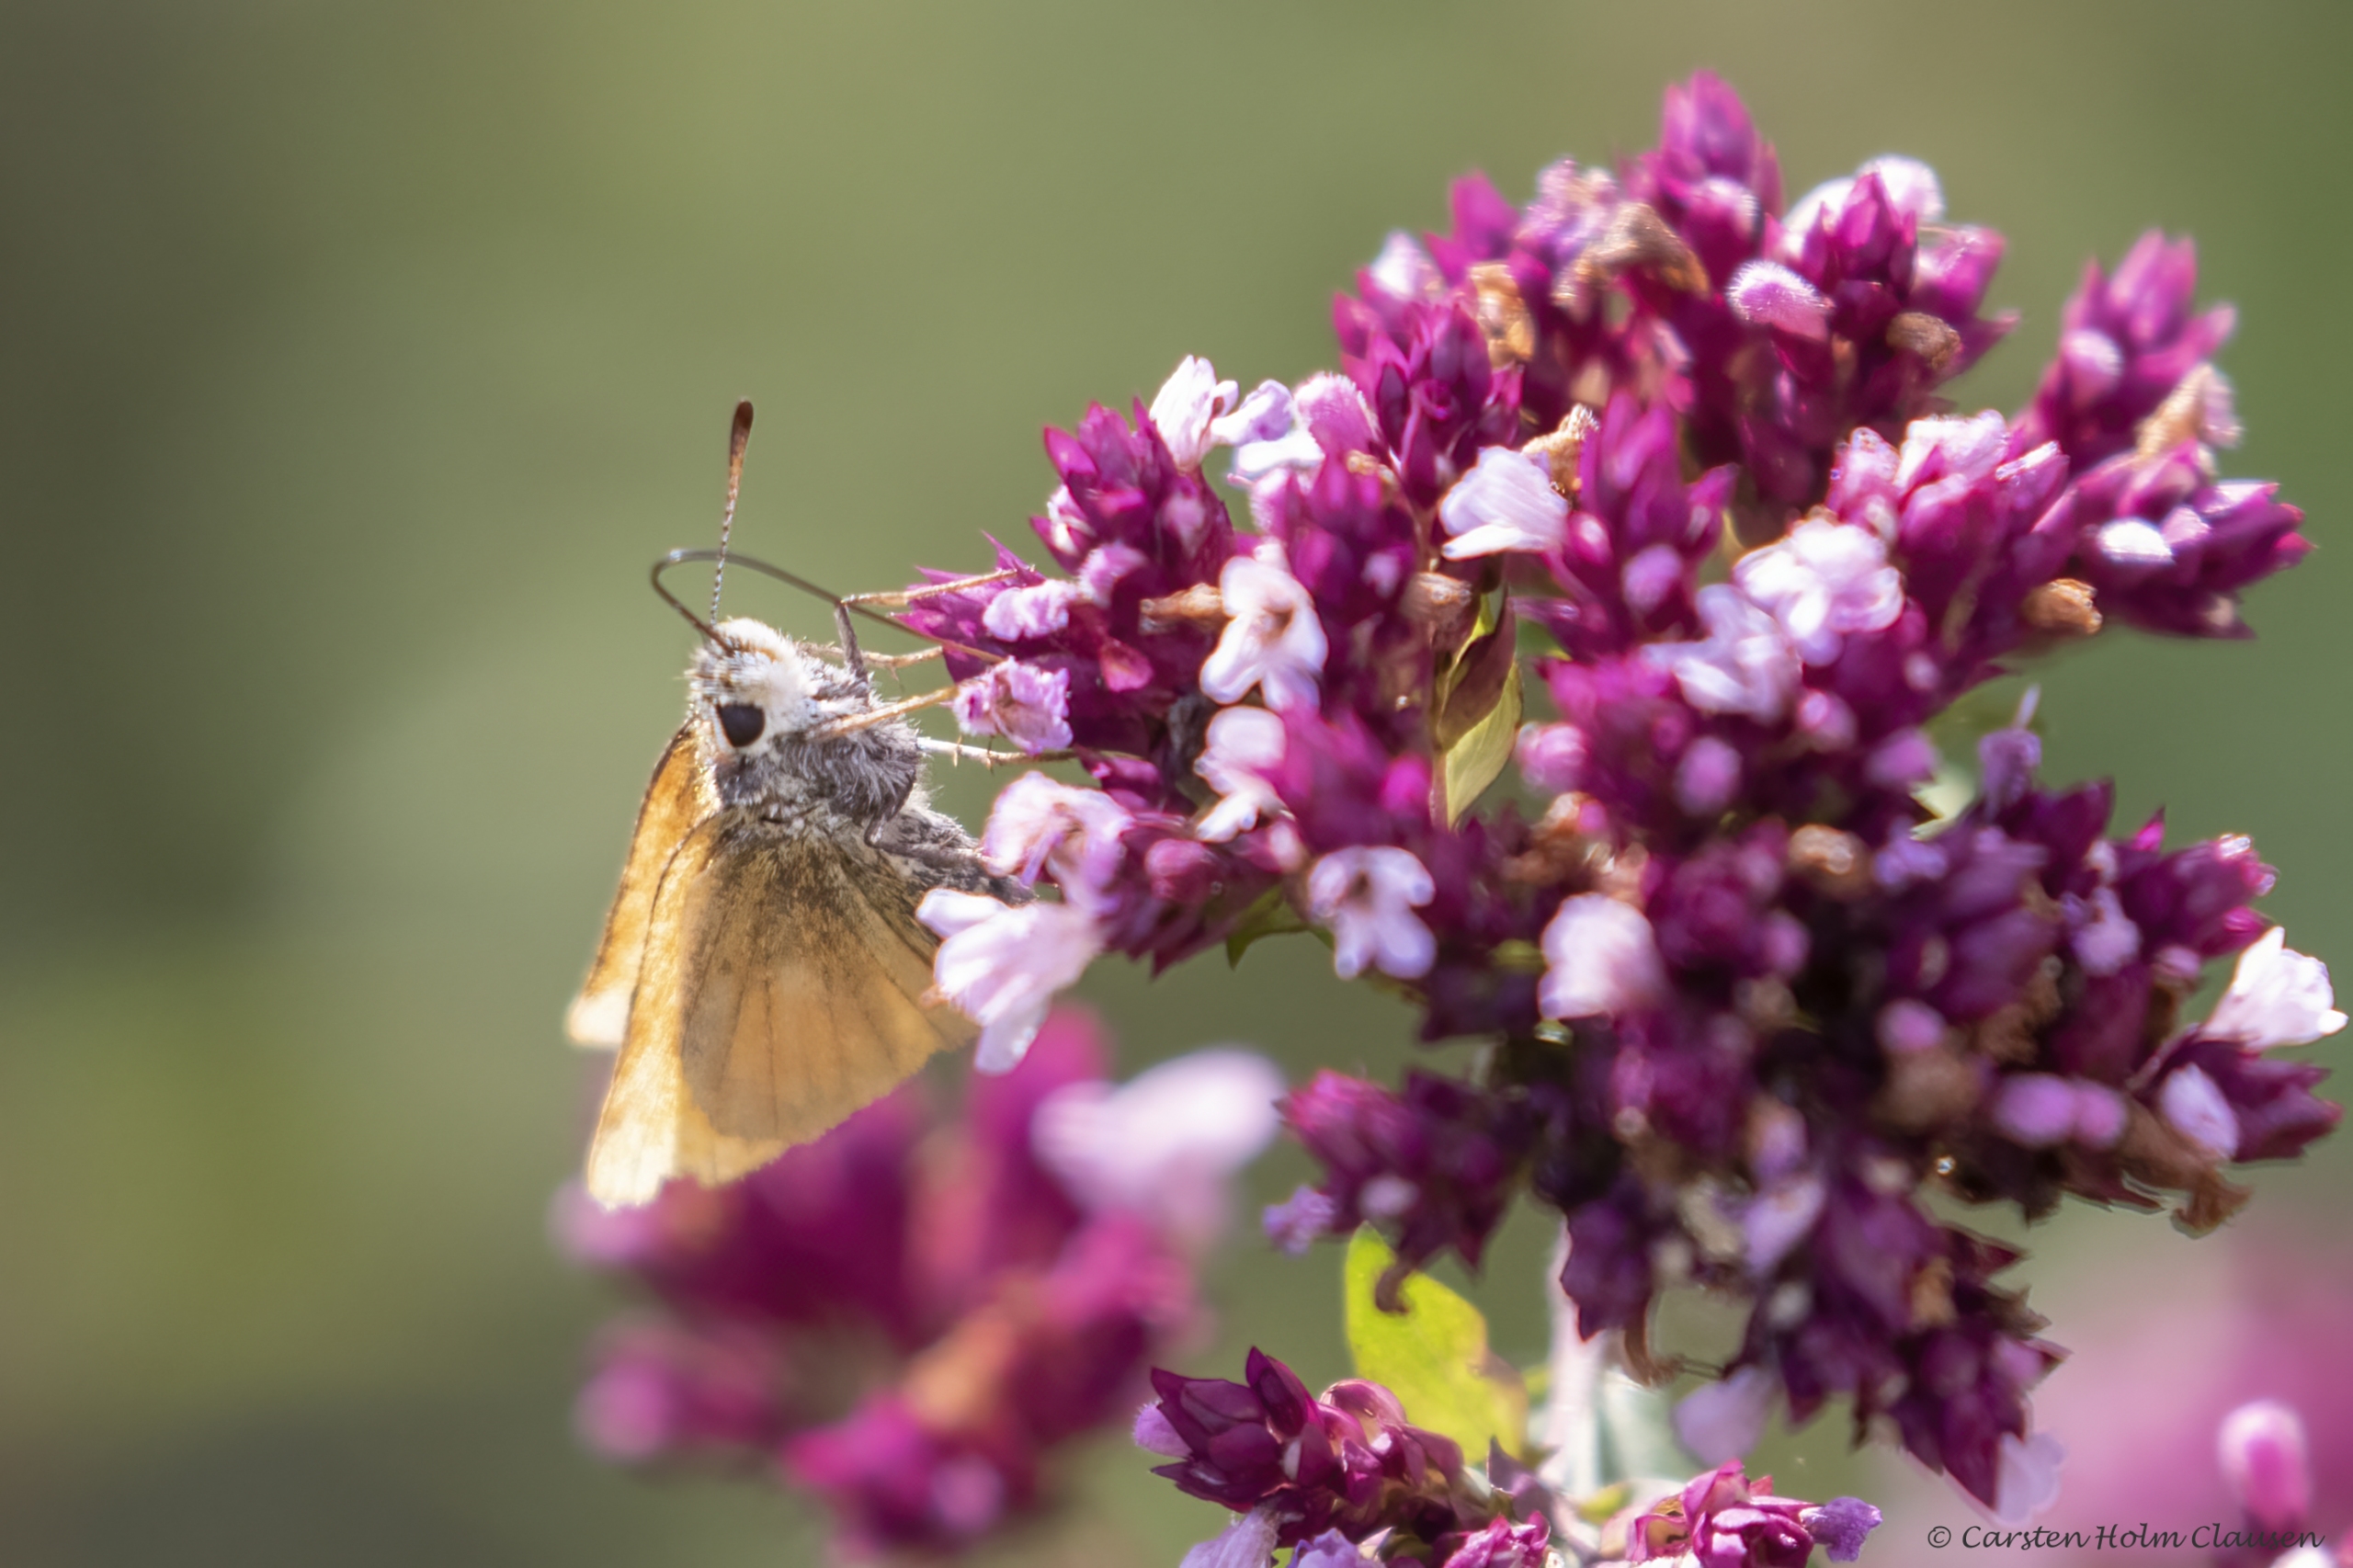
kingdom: Animalia
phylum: Arthropoda
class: Insecta
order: Lepidoptera
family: Hesperiidae
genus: Thymelicus
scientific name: Thymelicus lineola
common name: Stregbredpande
